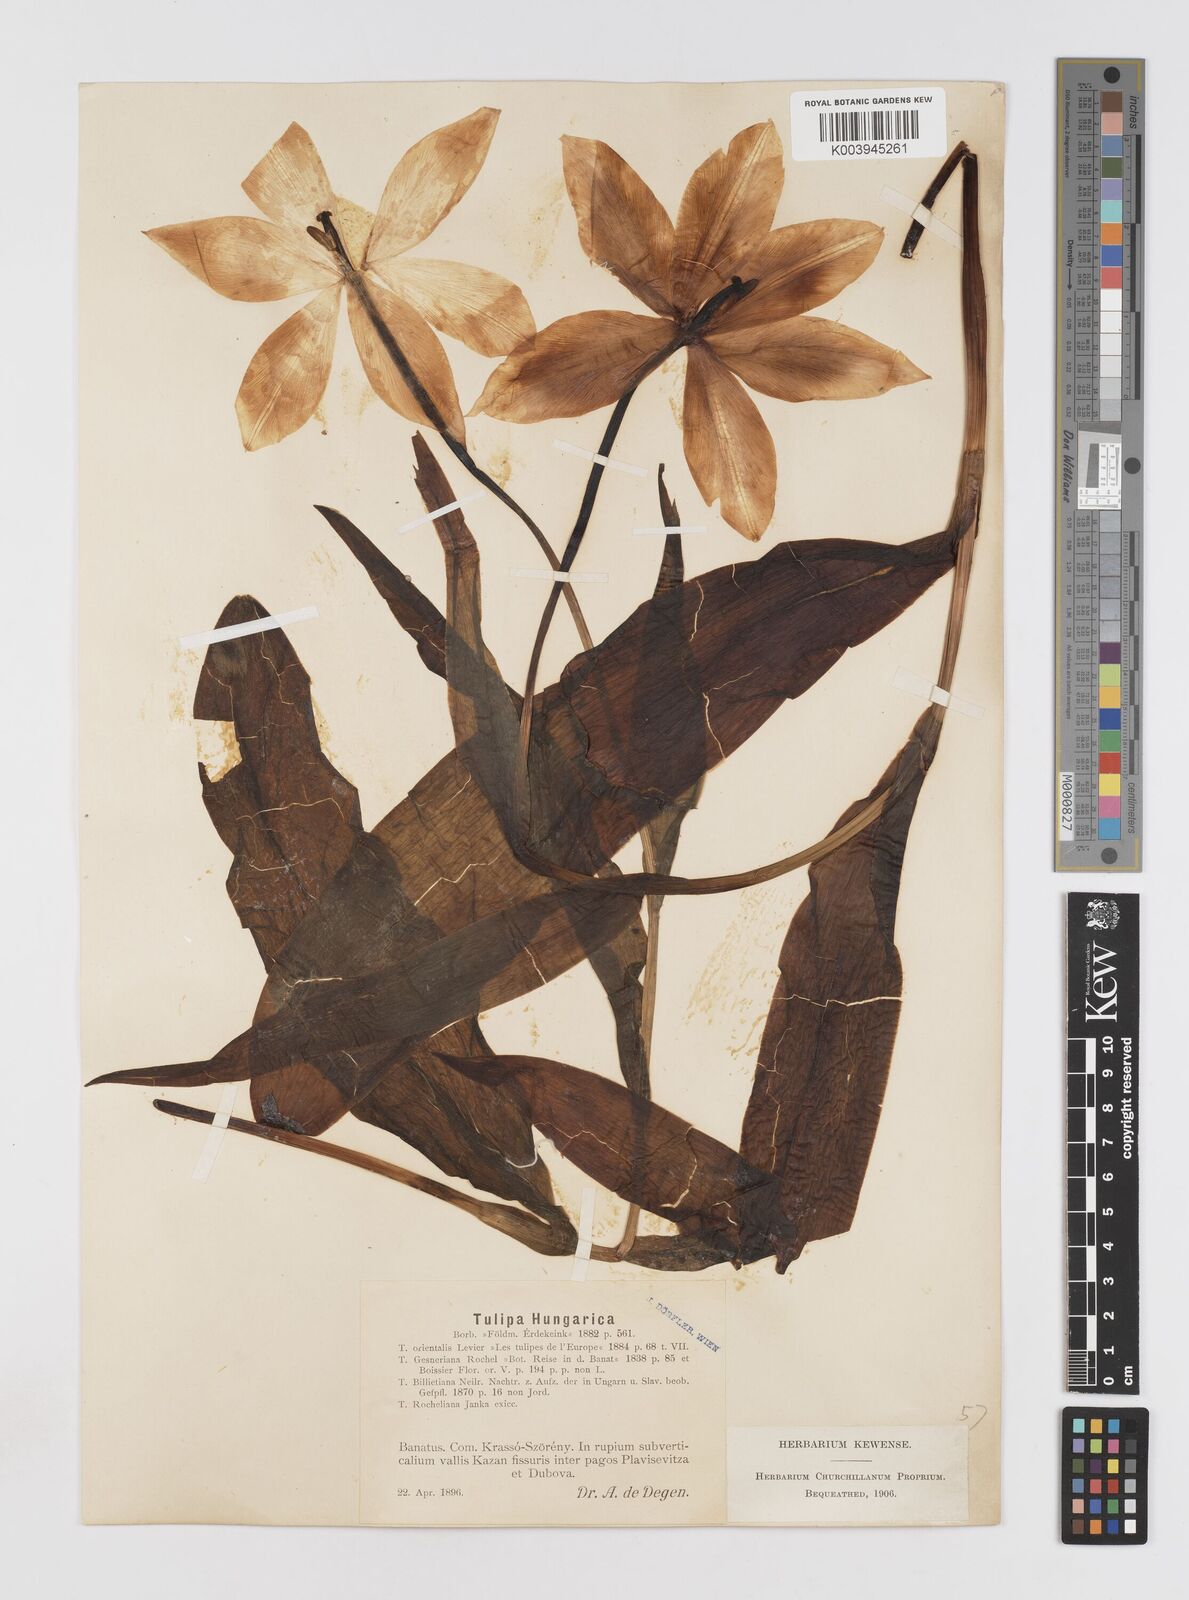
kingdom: Plantae
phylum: Tracheophyta
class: Liliopsida
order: Liliales
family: Liliaceae
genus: Tulipa
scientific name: Tulipa hungarica
